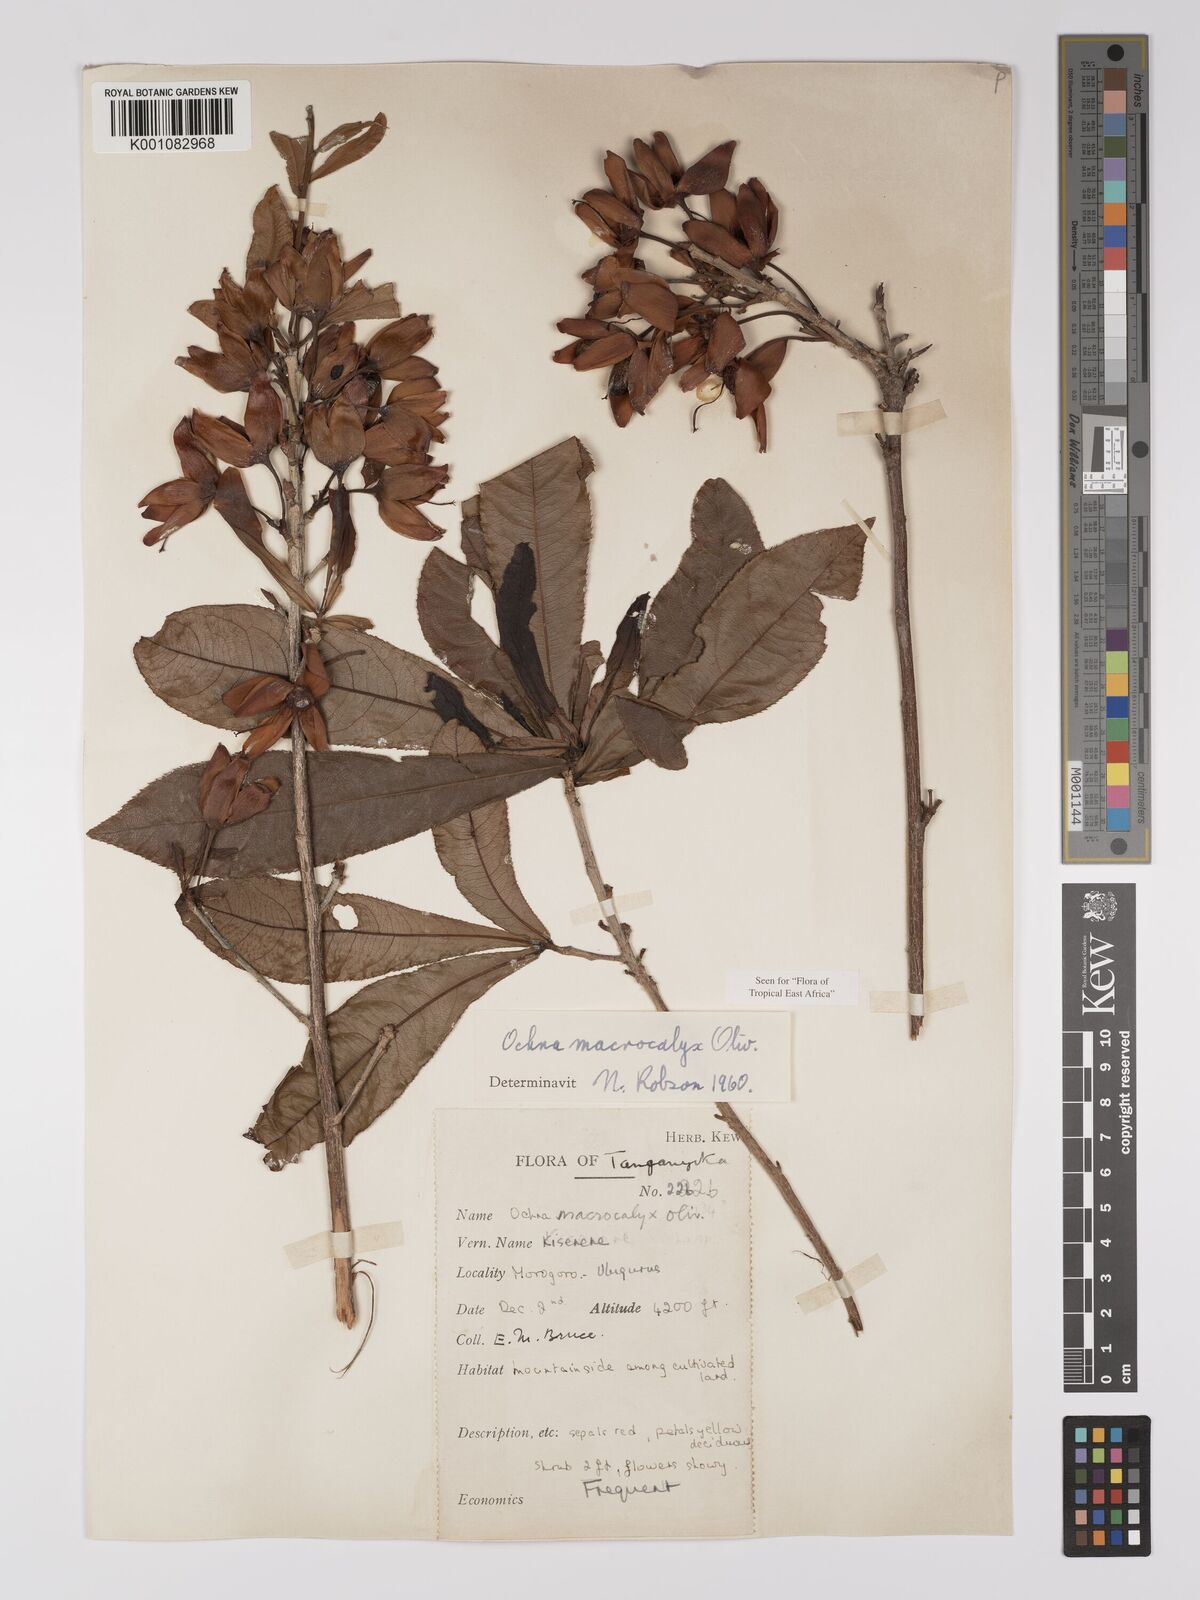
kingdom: Plantae
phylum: Tracheophyta
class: Magnoliopsida
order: Malpighiales
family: Ochnaceae
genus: Ochna
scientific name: Ochna macrocalyx
